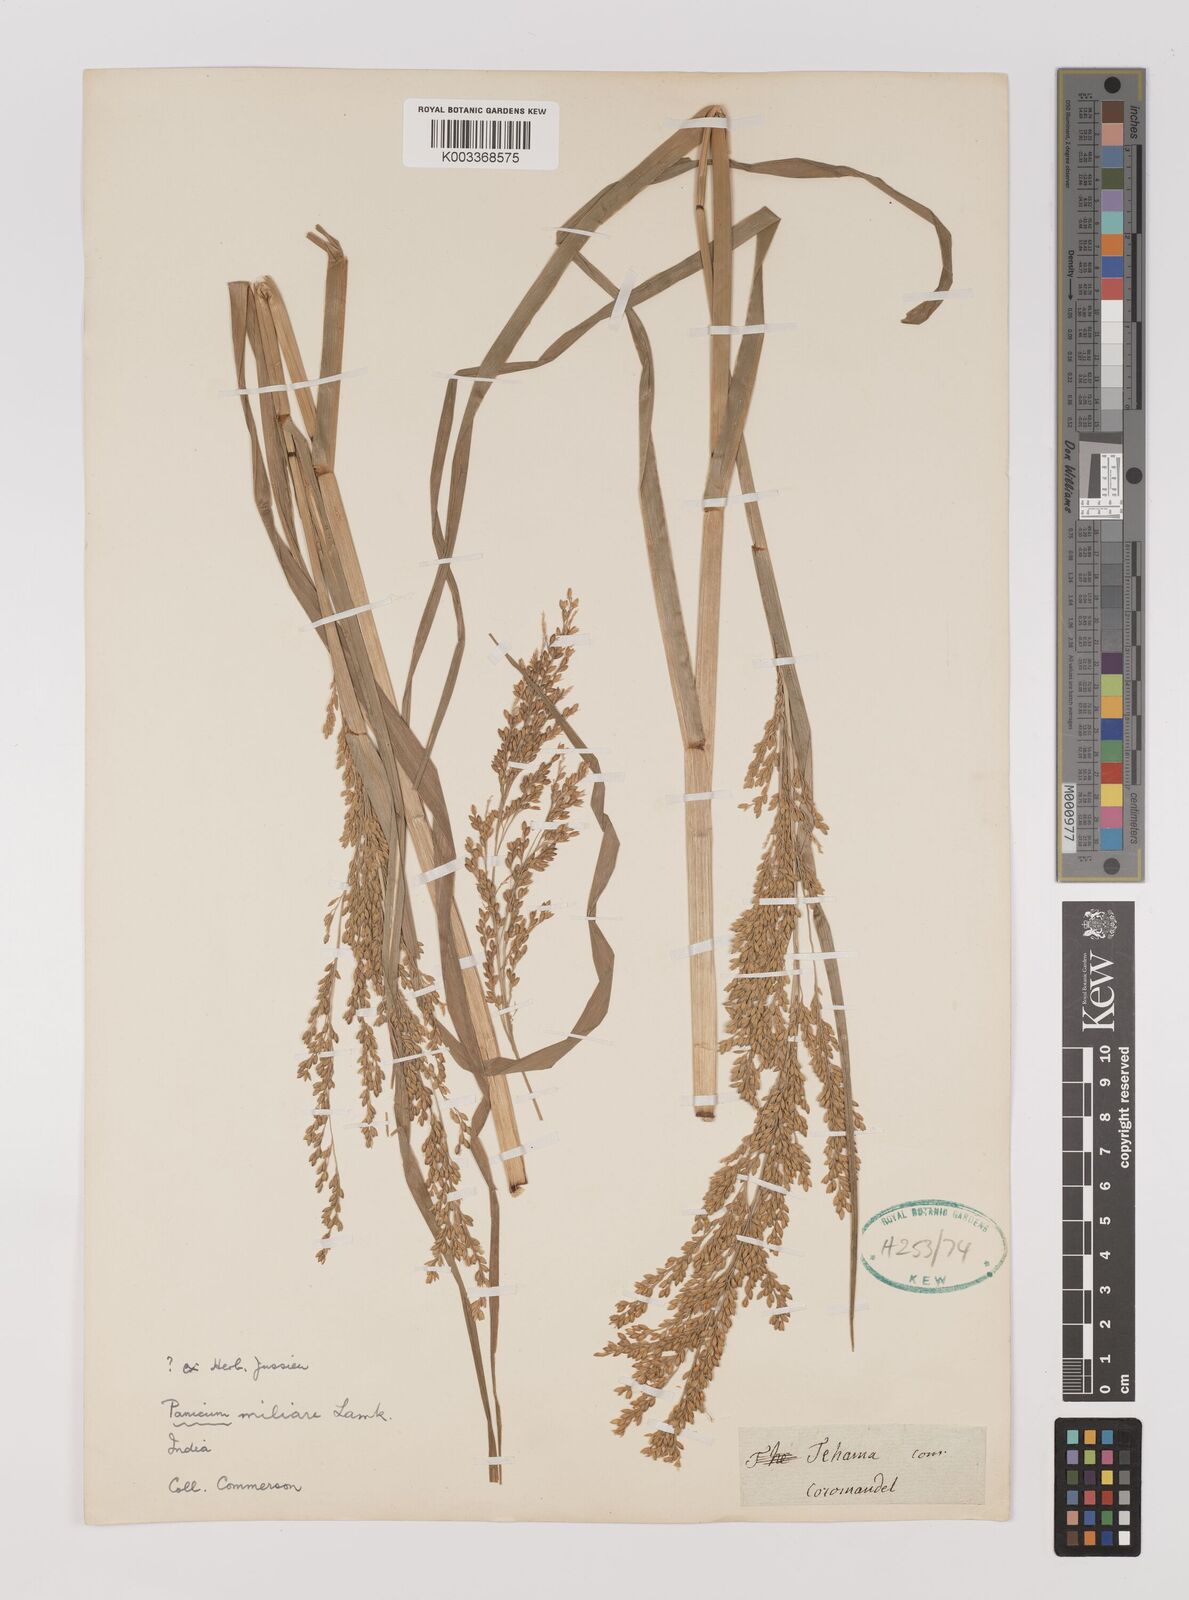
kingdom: Plantae
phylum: Tracheophyta
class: Liliopsida
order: Poales
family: Poaceae
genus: Panicum
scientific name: Panicum sumatrense
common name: Little millet
